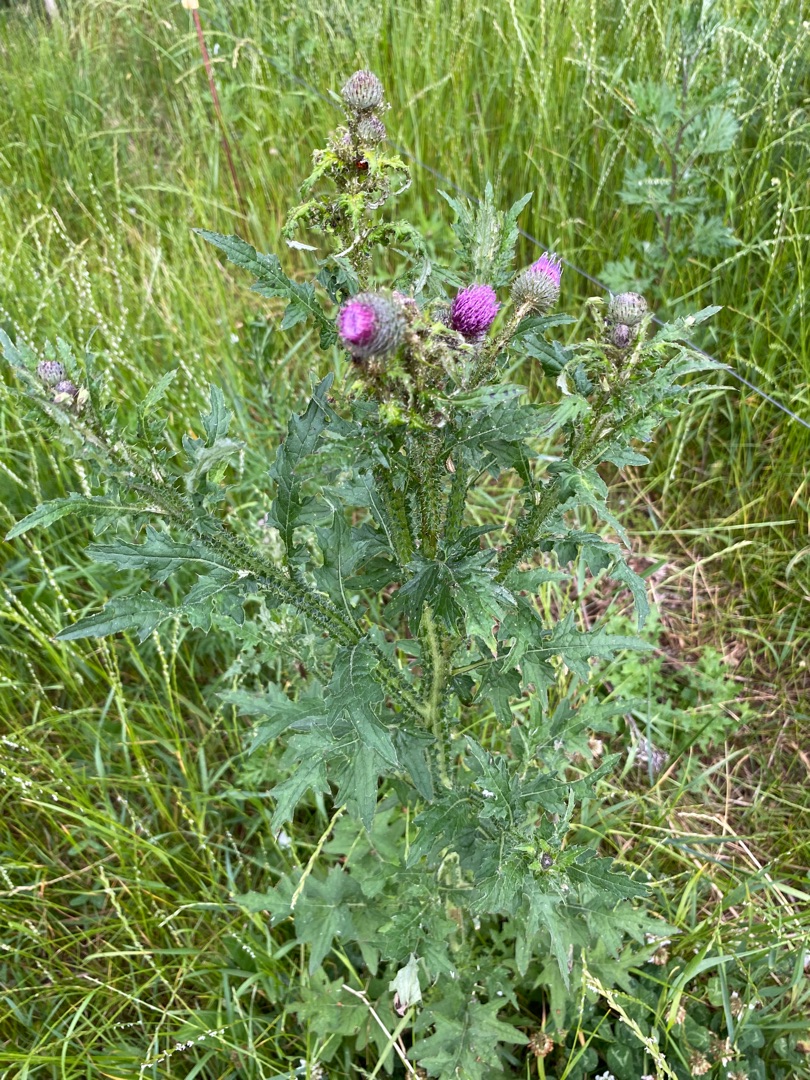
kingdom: Plantae
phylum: Tracheophyta
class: Magnoliopsida
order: Asterales
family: Asteraceae
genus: Carduus
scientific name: Carduus crispus
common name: Kruset tidsel
